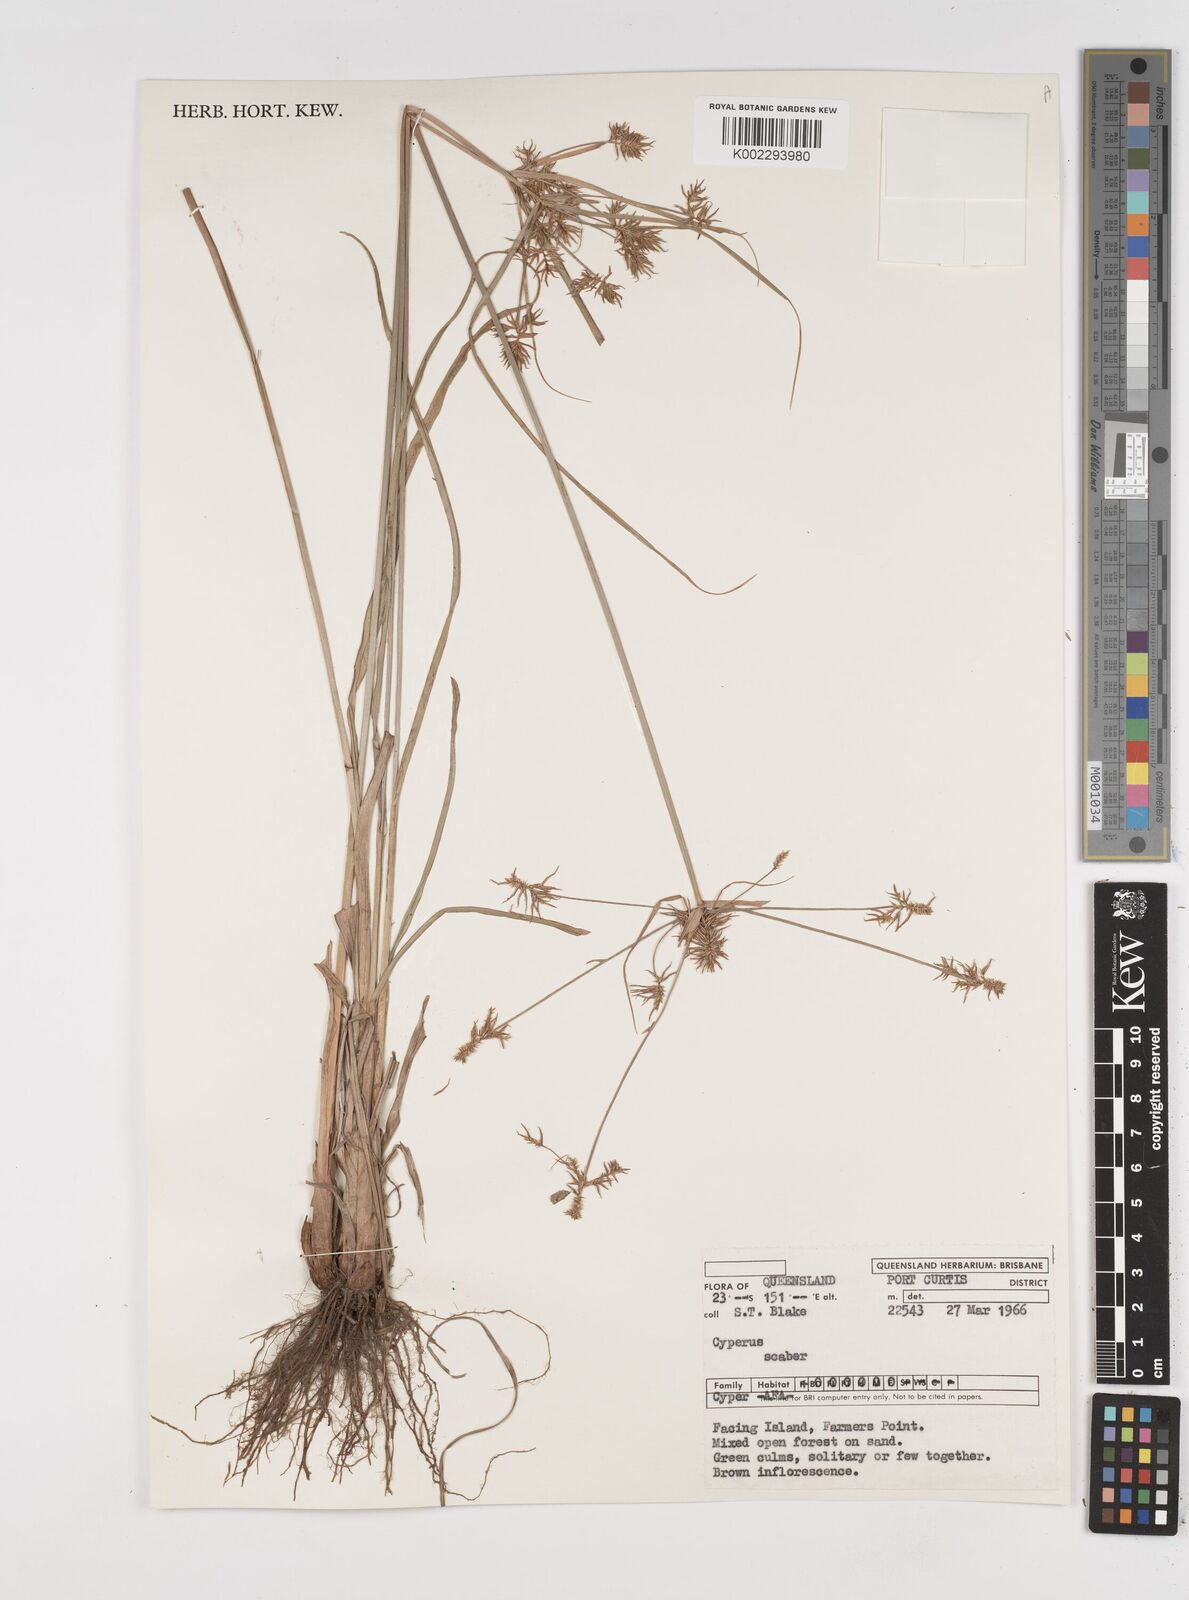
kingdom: Plantae
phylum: Tracheophyta
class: Liliopsida
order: Poales
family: Cyperaceae
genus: Cyperus
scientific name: Cyperus scaber
